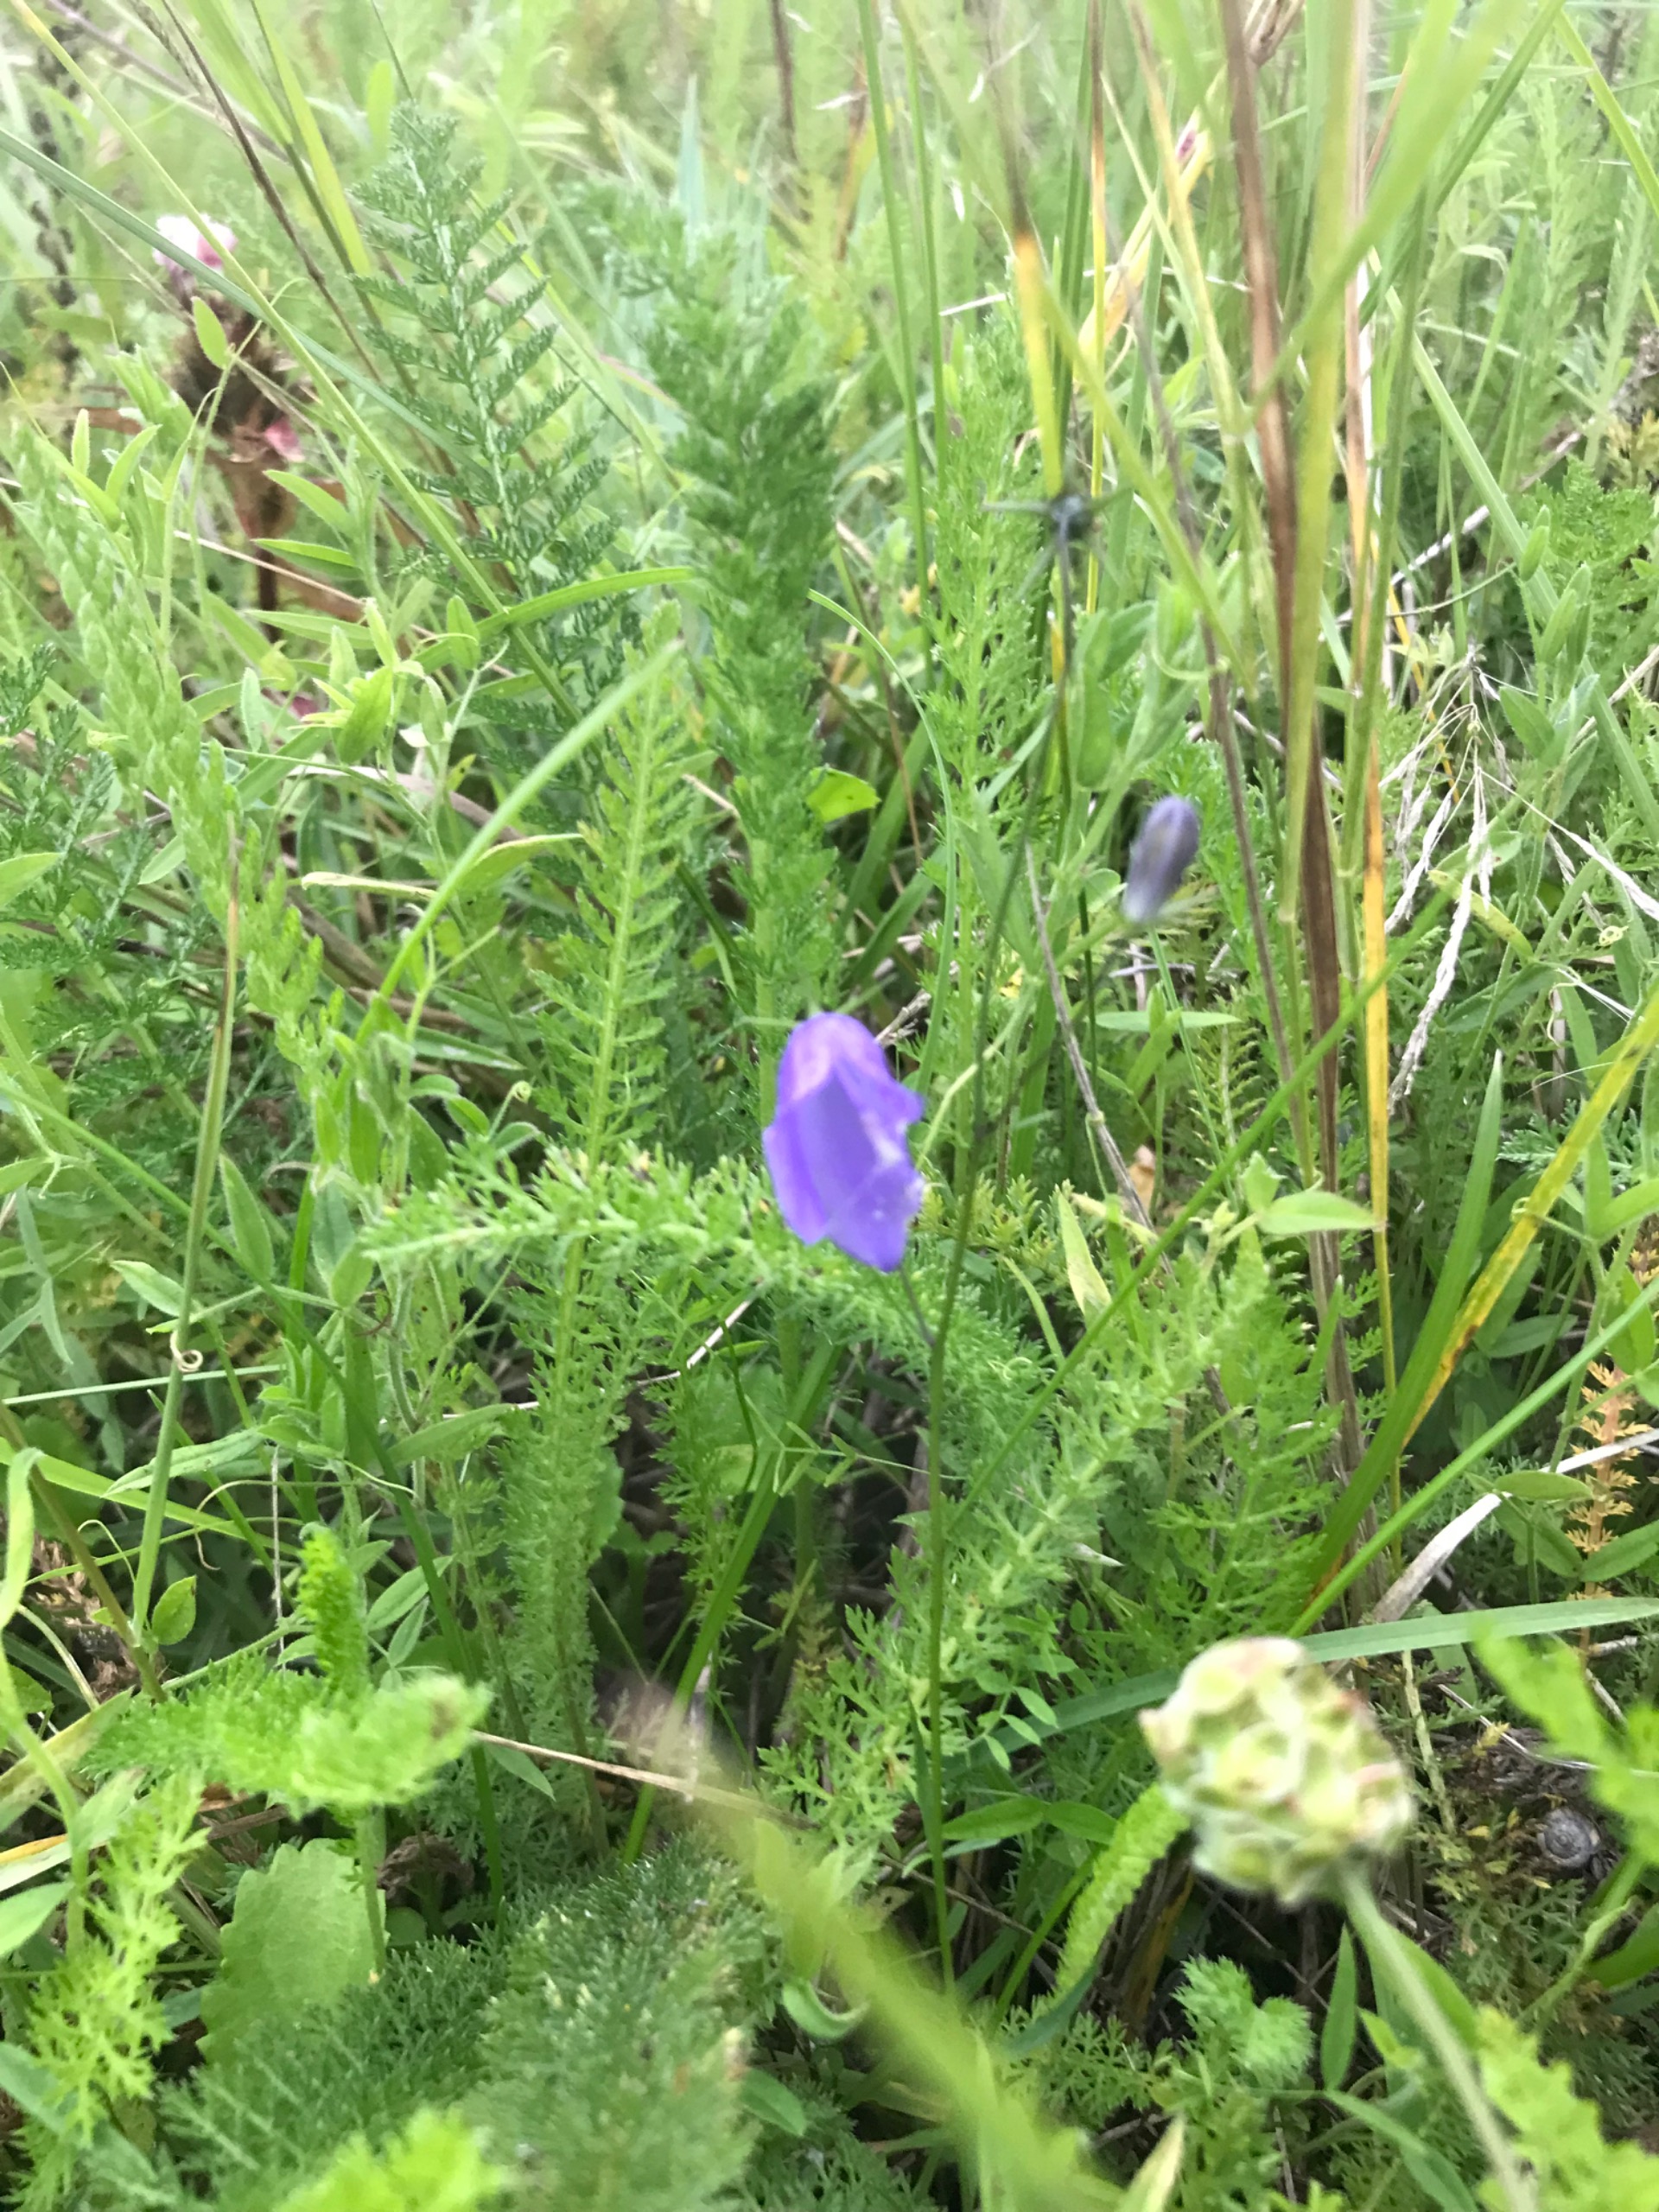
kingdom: Plantae
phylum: Tracheophyta
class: Magnoliopsida
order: Asterales
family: Campanulaceae
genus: Campanula
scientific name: Campanula persicifolia
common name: Smalbladet klokke
